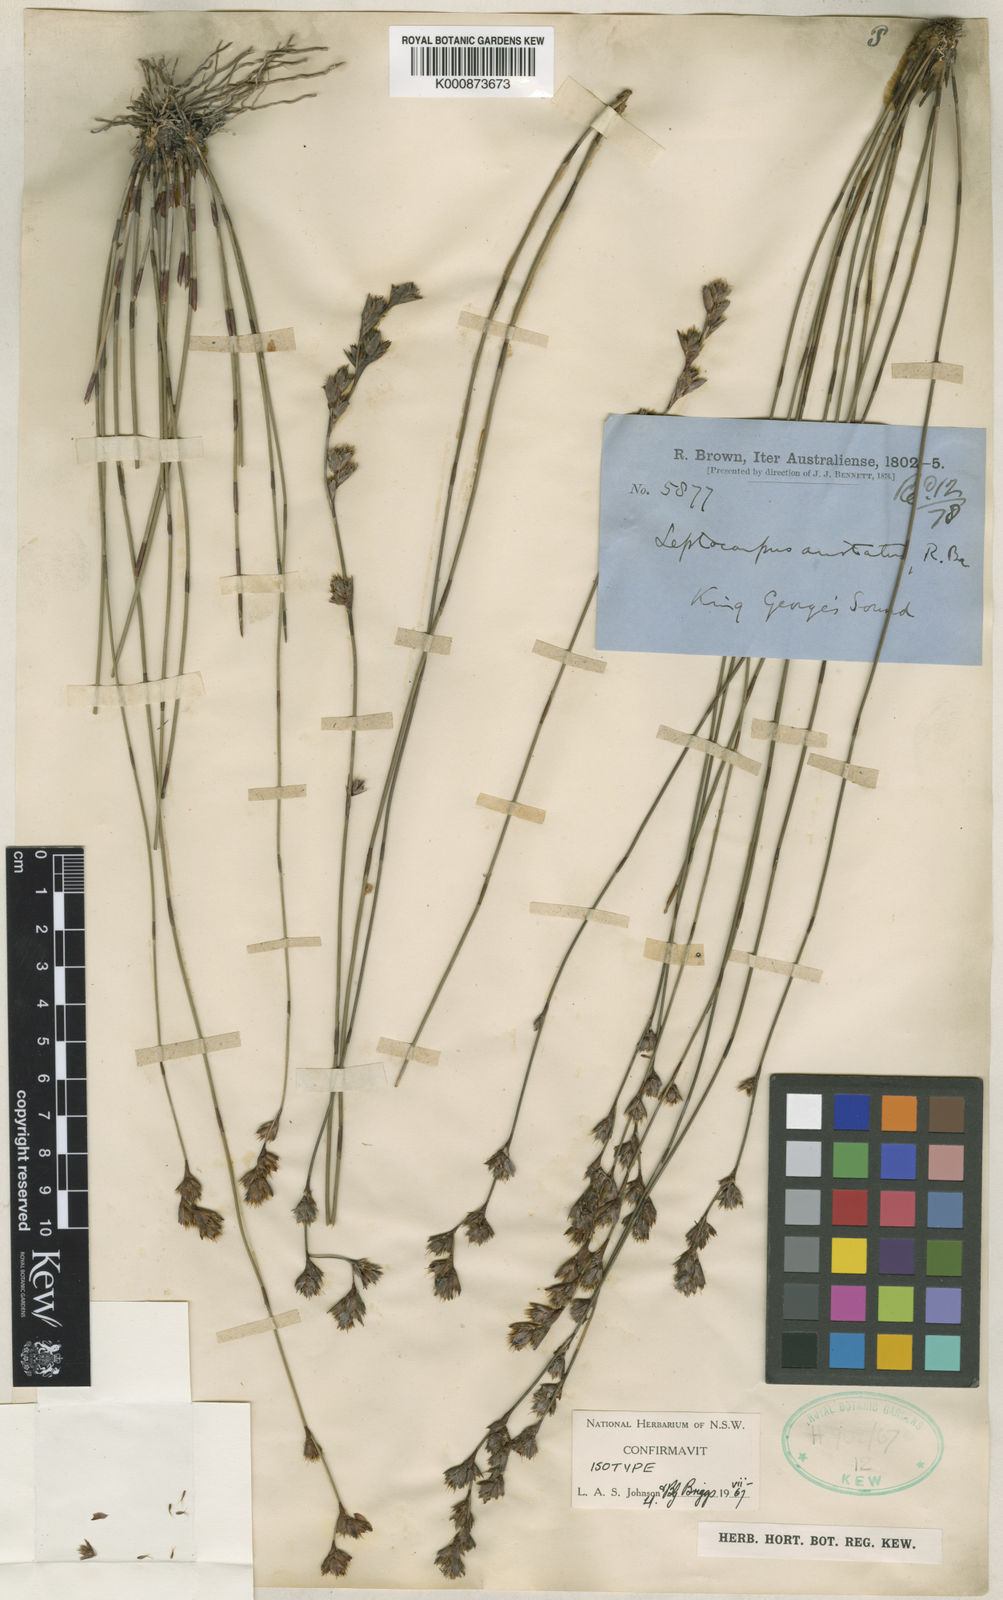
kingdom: Plantae
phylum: Tracheophyta
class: Liliopsida
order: Poales
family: Restionaceae
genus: Chaetanthus
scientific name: Chaetanthus aristatus
